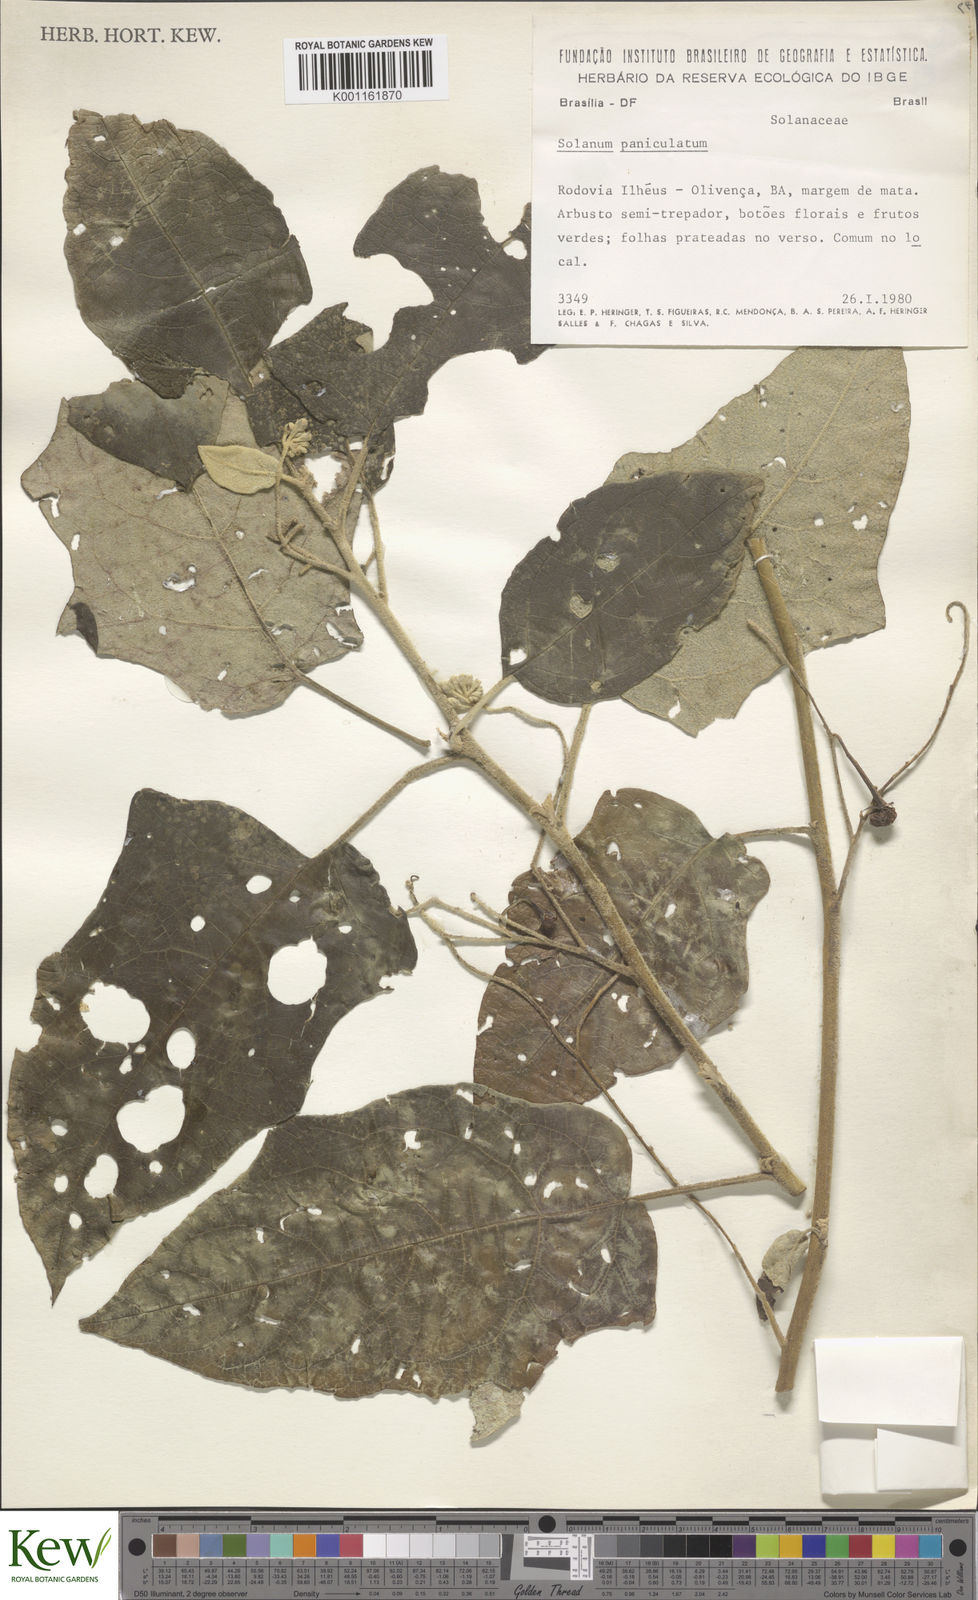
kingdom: Plantae
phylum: Tracheophyta
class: Magnoliopsida
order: Solanales
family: Solanaceae
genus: Solanum
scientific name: Solanum paniculatum
